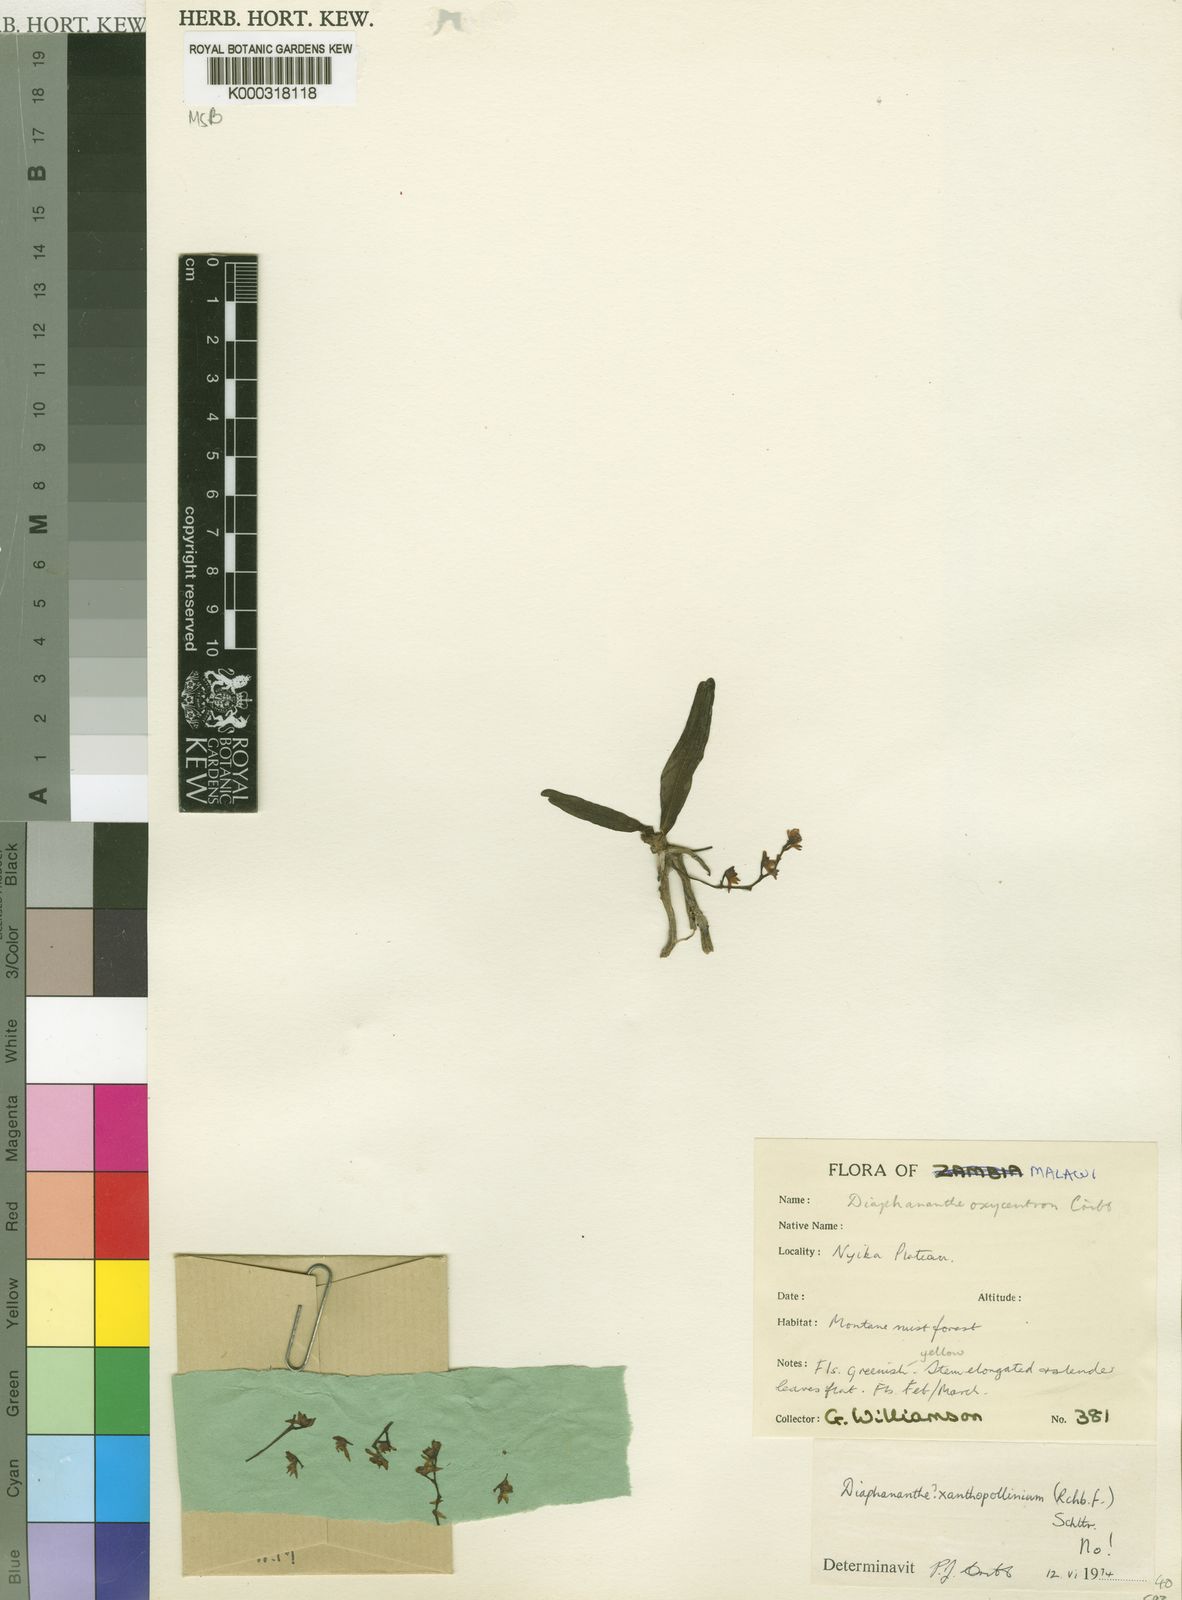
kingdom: Plantae
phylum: Tracheophyta
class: Liliopsida
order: Asparagales
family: Orchidaceae
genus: Rhipidoglossum
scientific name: Rhipidoglossum oxycentron
